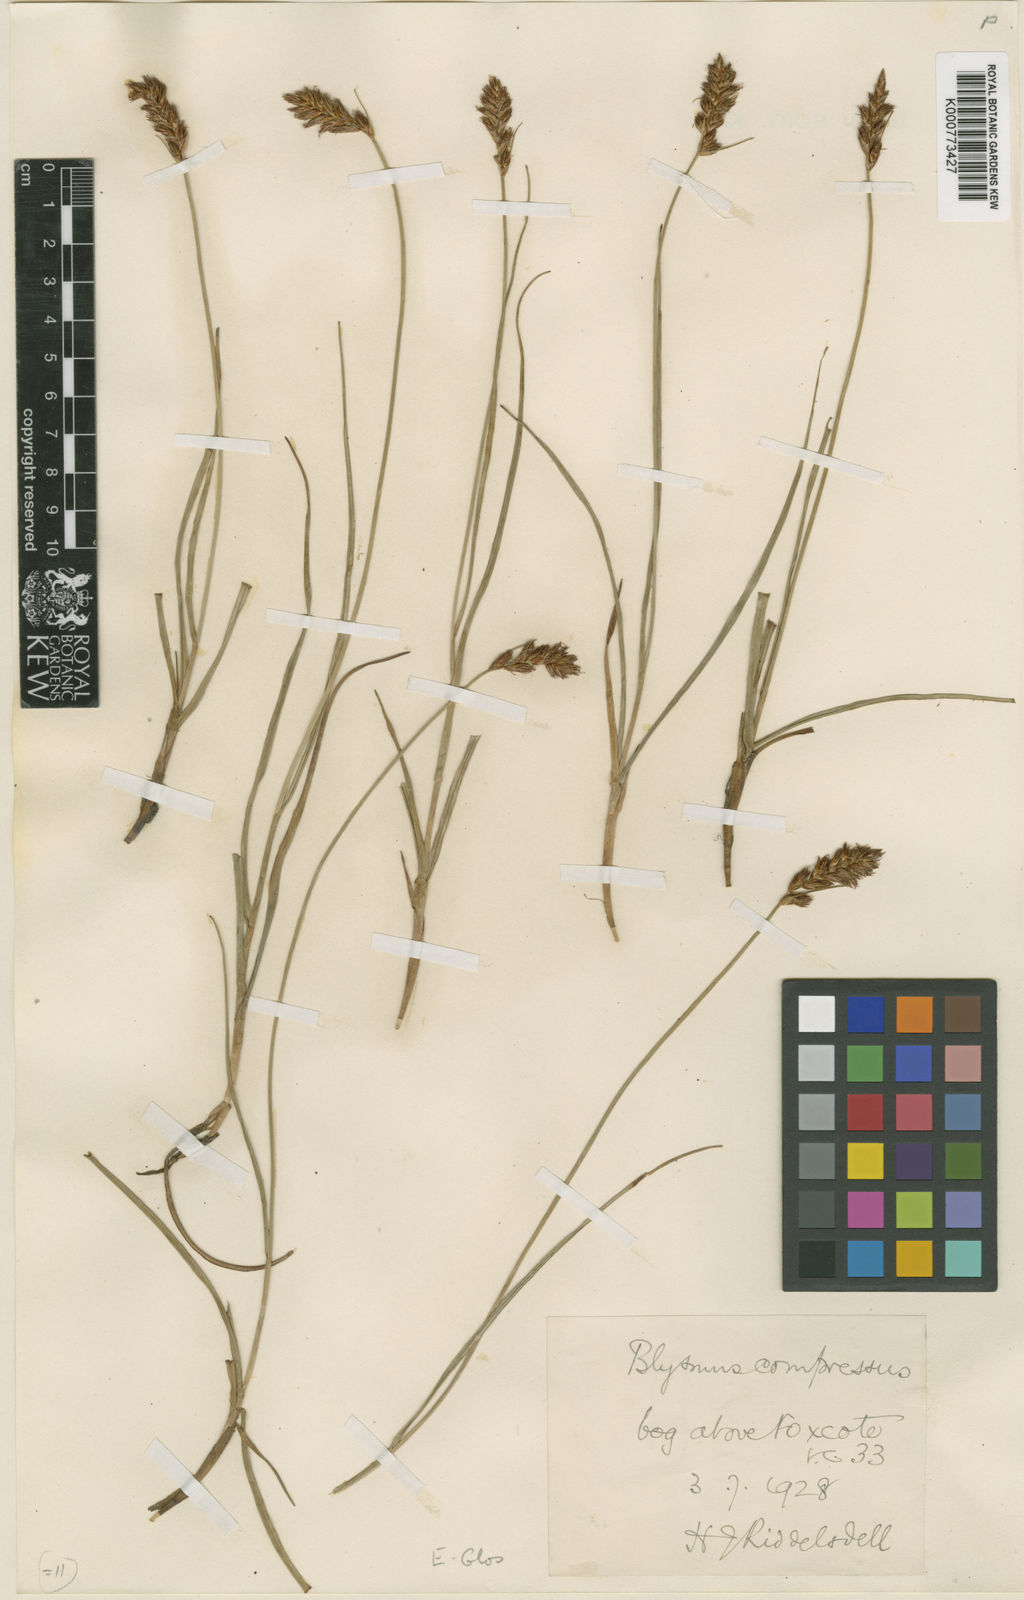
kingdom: Plantae
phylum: Tracheophyta
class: Liliopsida
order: Poales
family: Cyperaceae
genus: Blysmus
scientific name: Blysmus compressus
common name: Flat-sedge
